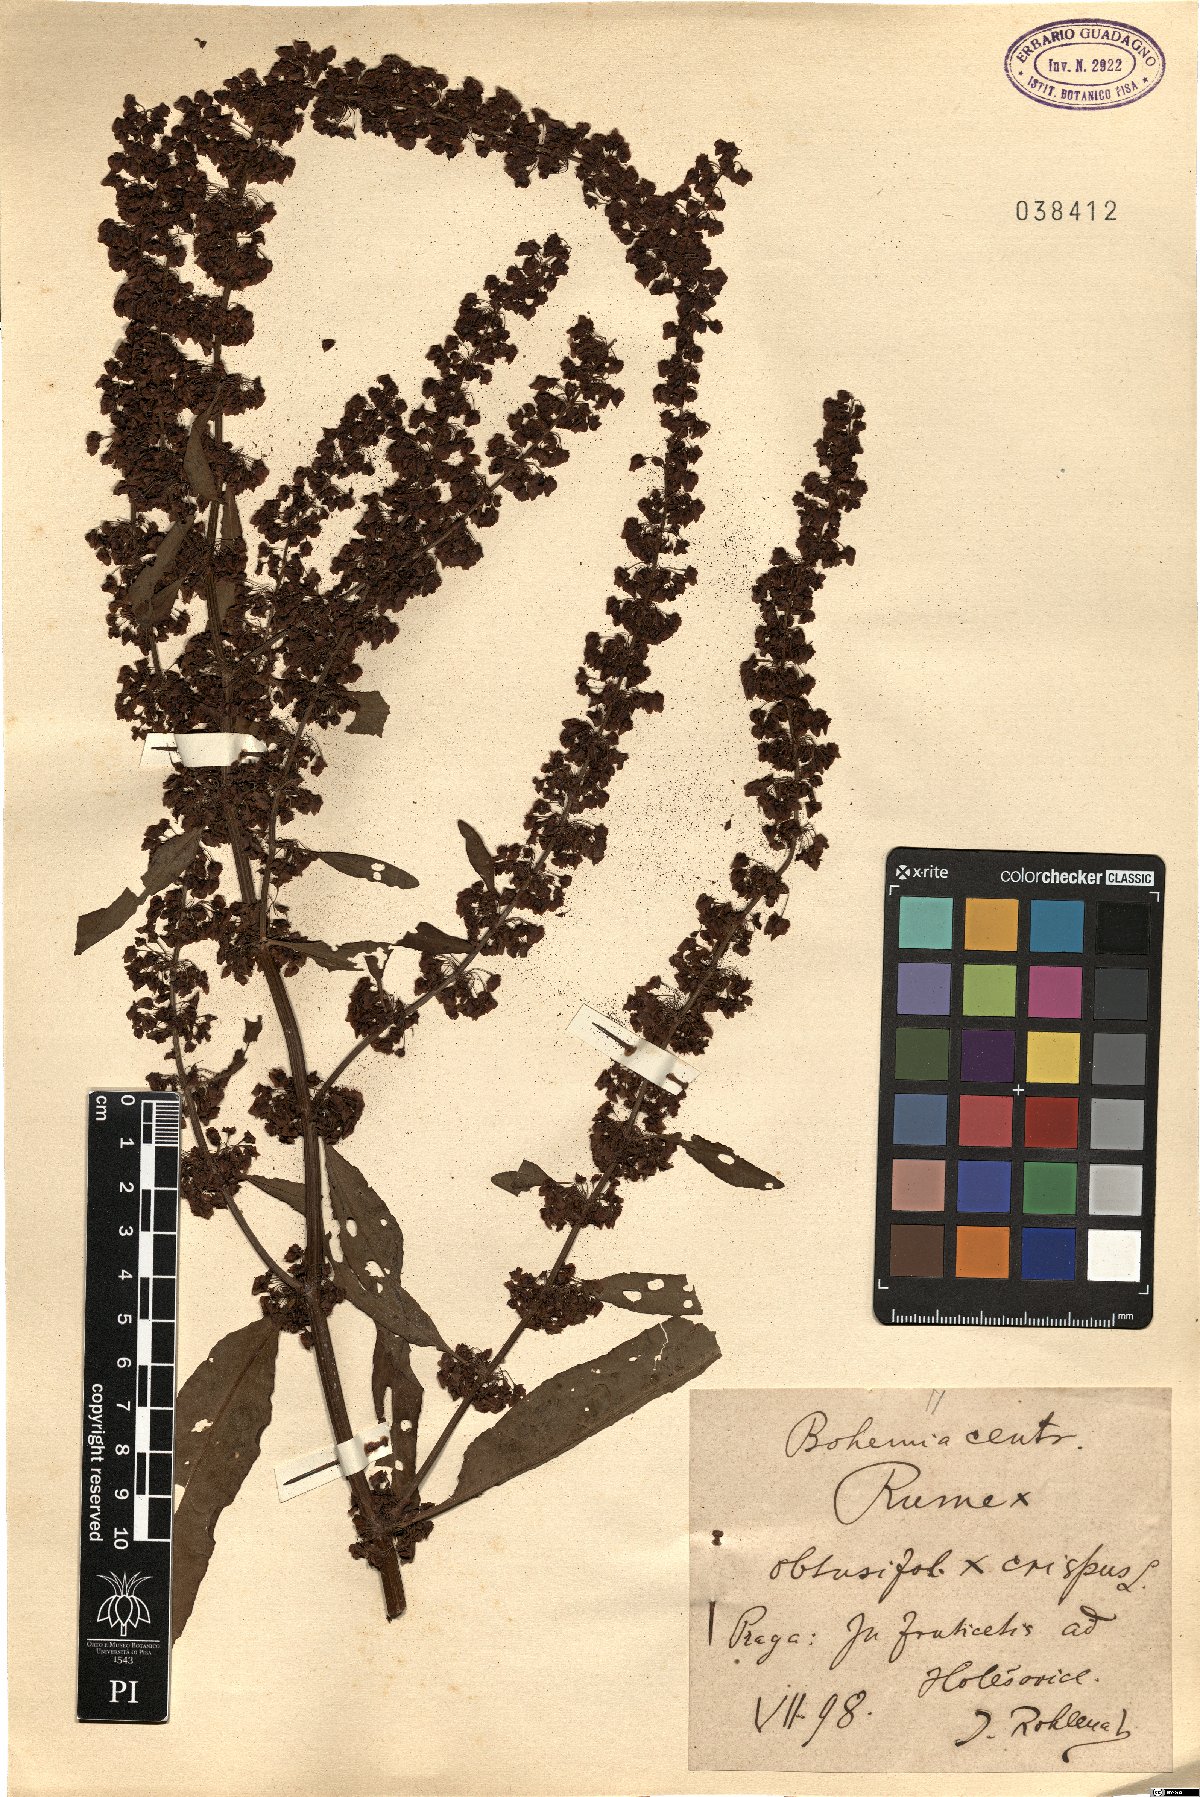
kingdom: Plantae
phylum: Tracheophyta
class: Magnoliopsida
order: Caryophyllales
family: Polygonaceae
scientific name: Polygonaceae
